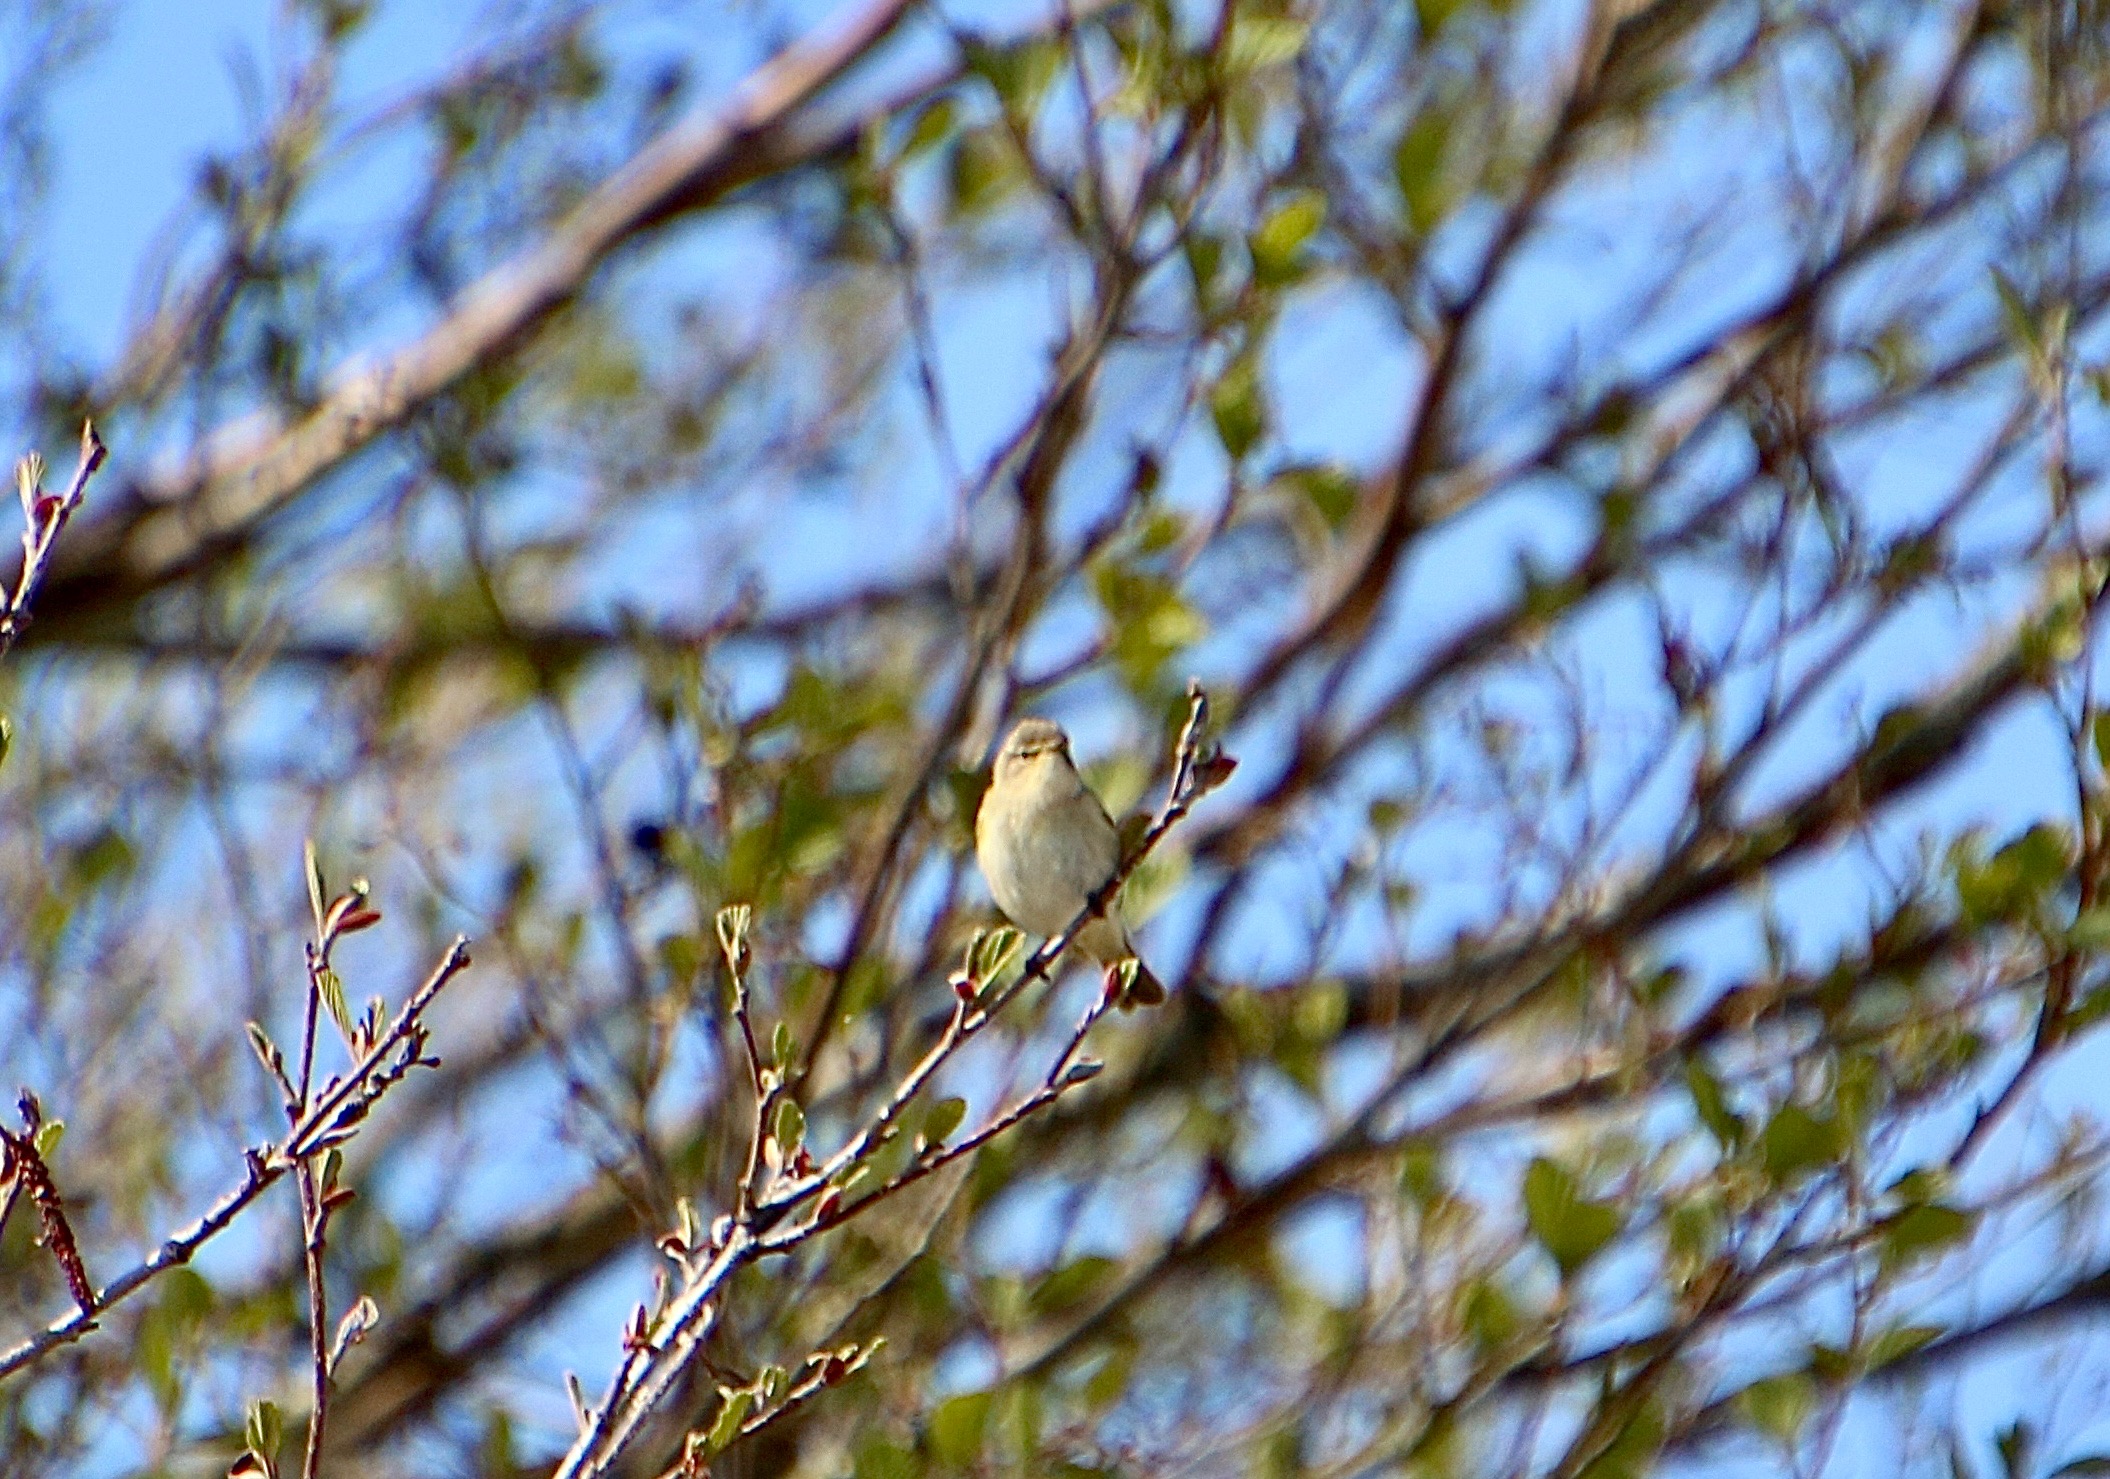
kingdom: Animalia
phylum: Chordata
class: Aves
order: Passeriformes
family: Phylloscopidae
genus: Phylloscopus
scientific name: Phylloscopus collybita
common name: Gransanger
